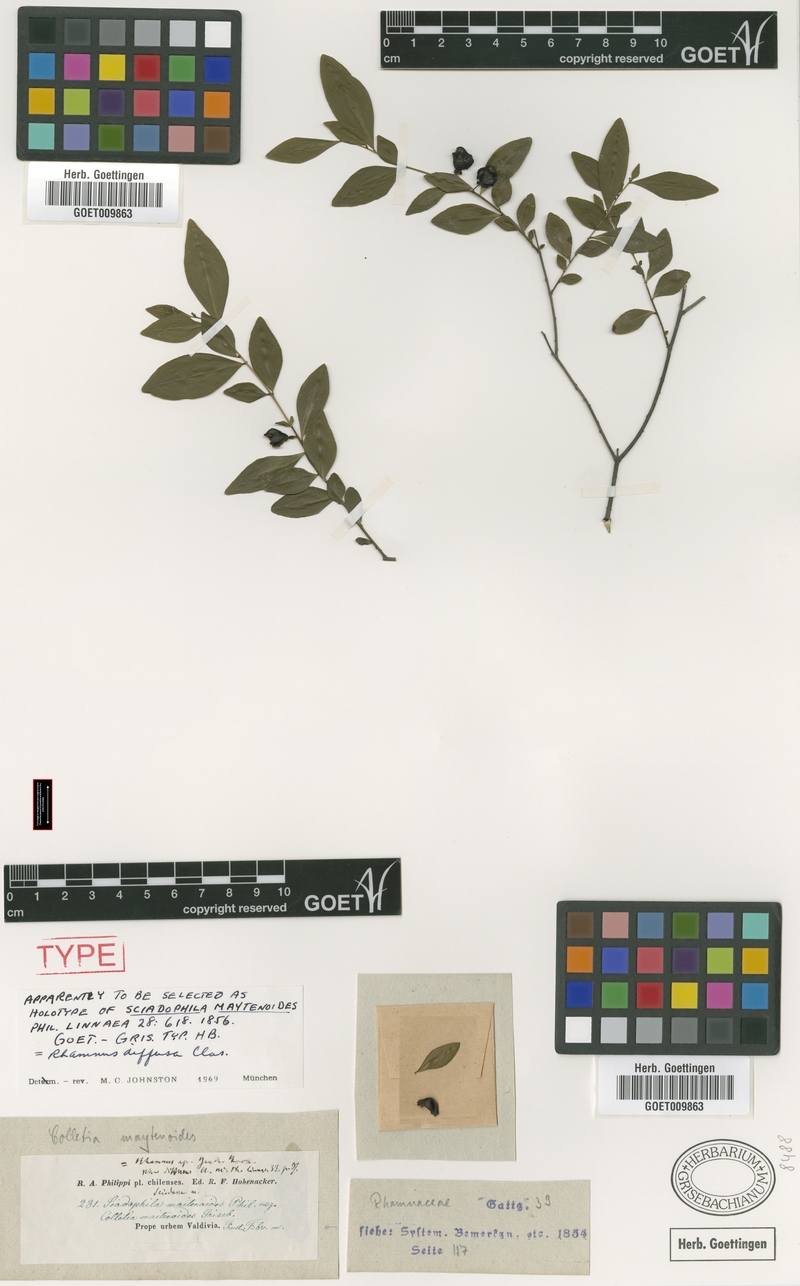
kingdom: Plantae
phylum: Tracheophyta
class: Magnoliopsida
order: Rosales
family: Rhamnaceae
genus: Condalia
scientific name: Condalia maytenoides
